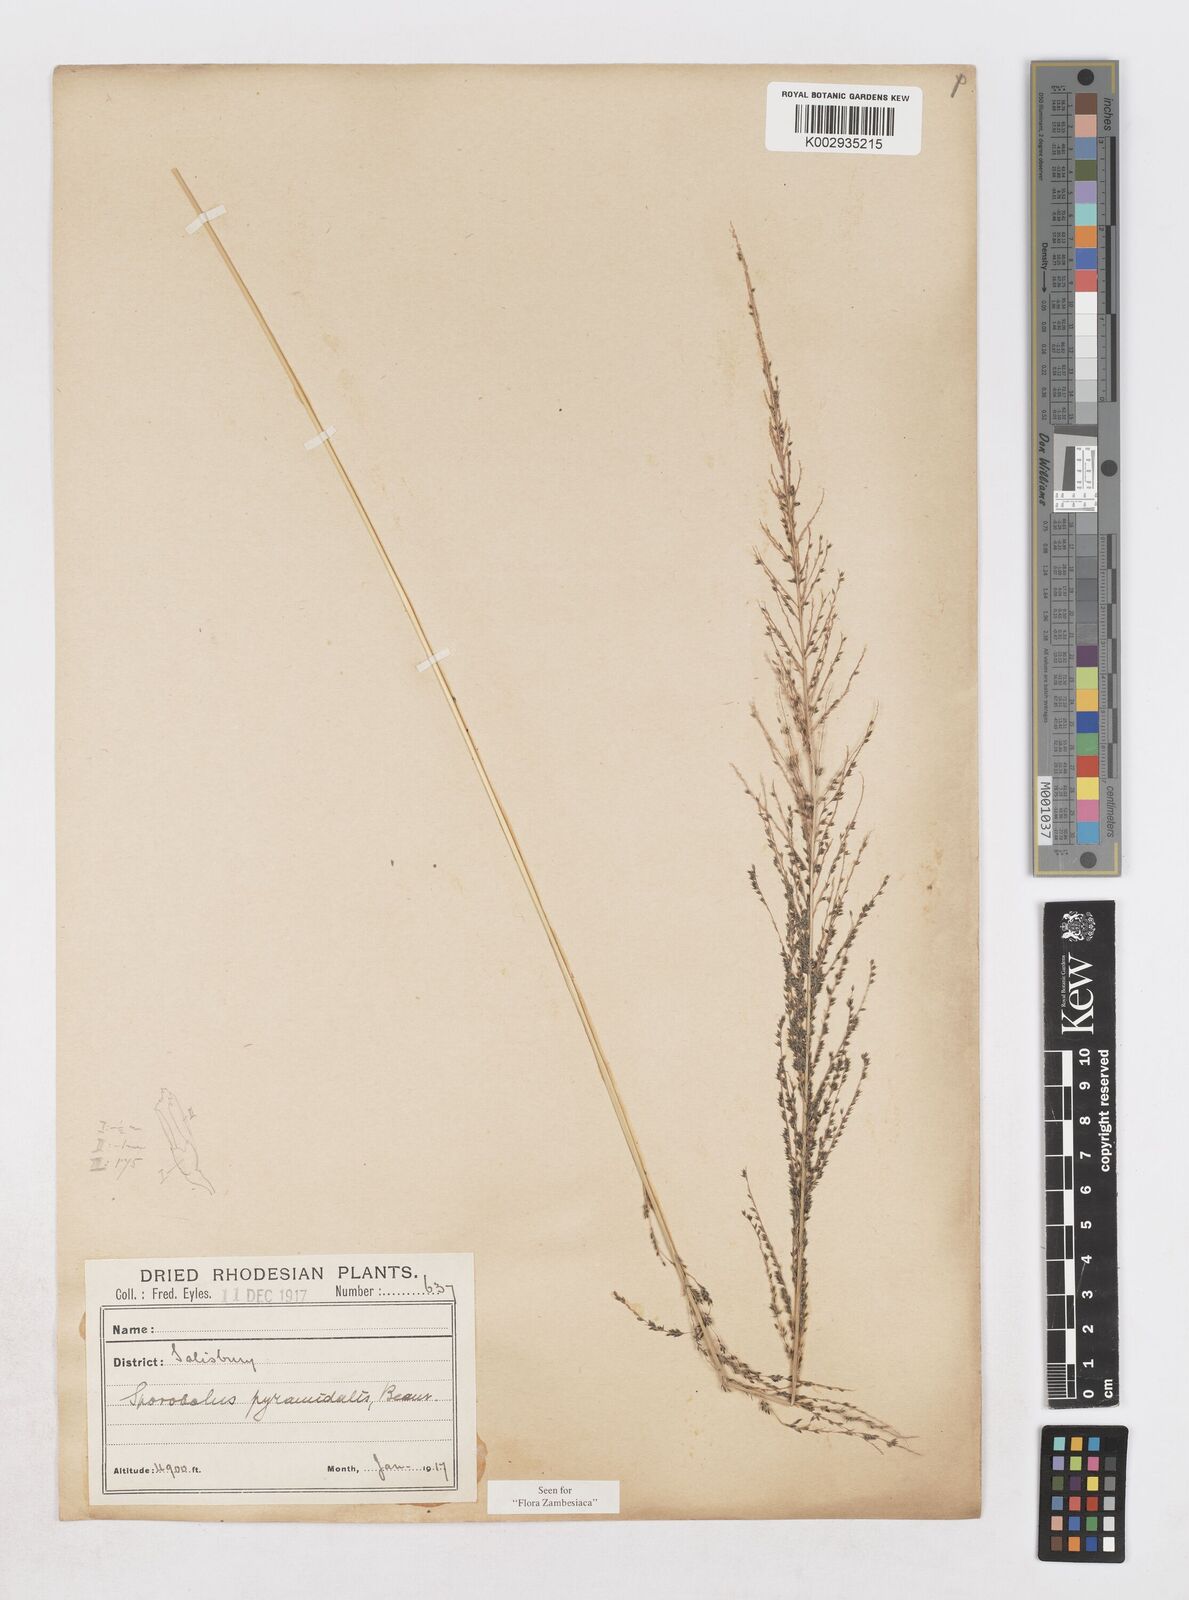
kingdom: Plantae
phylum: Tracheophyta
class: Liliopsida
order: Poales
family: Poaceae
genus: Sporobolus
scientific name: Sporobolus pyramidalis
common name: West indian dropseed
